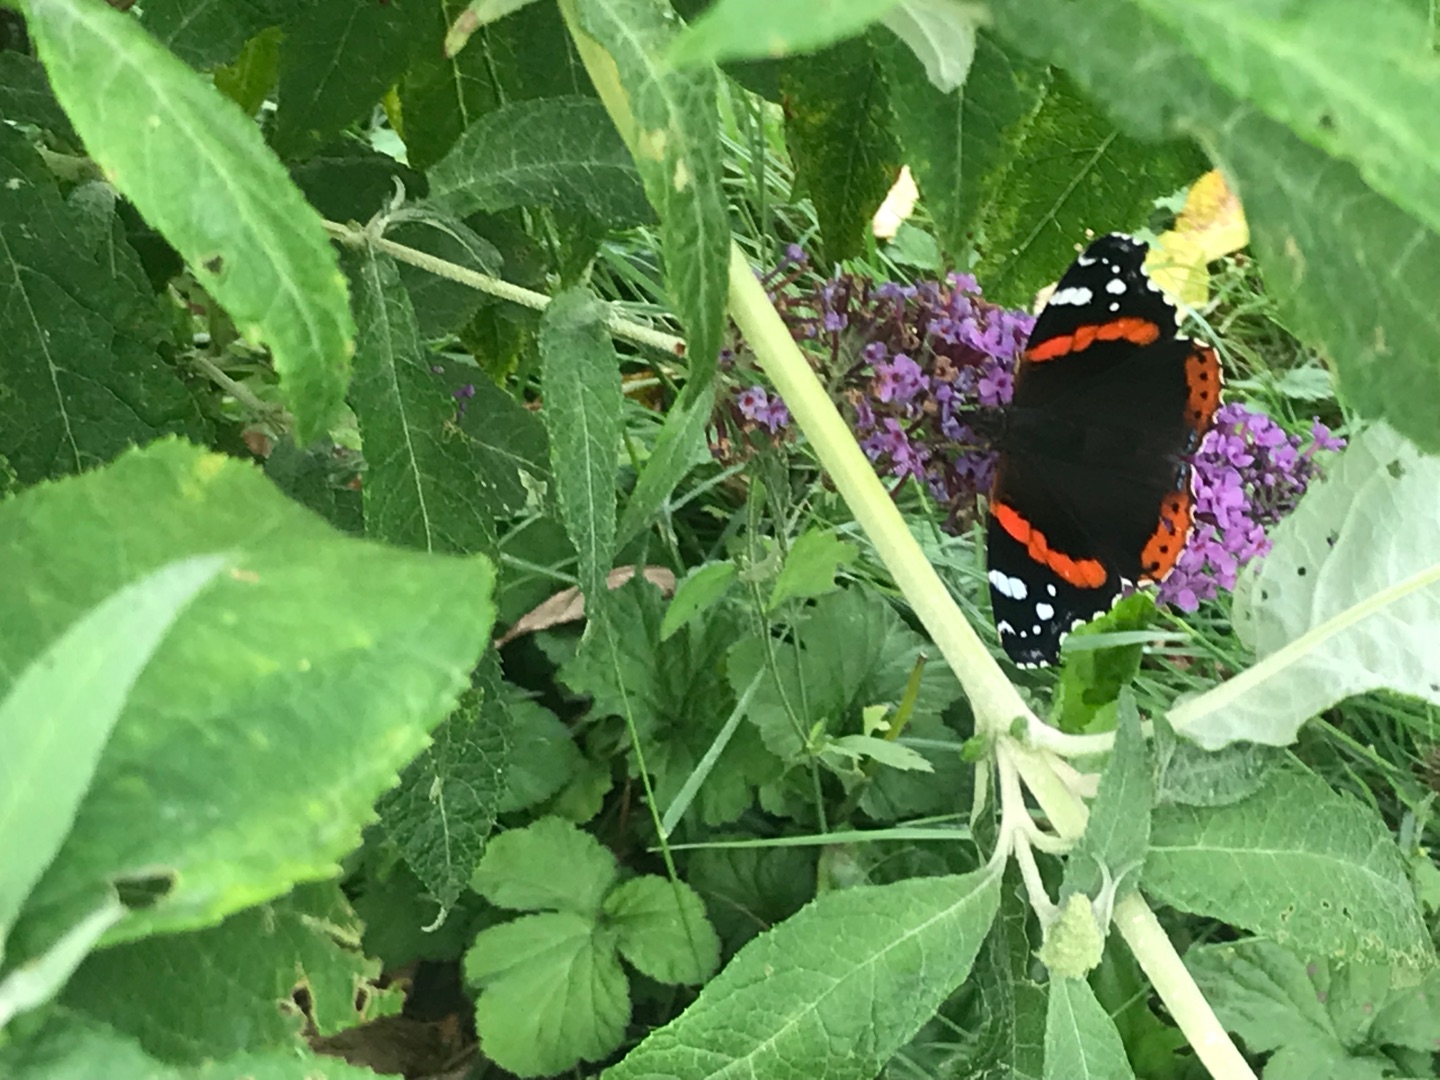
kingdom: Animalia
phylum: Arthropoda
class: Insecta
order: Lepidoptera
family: Nymphalidae
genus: Vanessa
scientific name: Vanessa atalanta
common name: Admiral
